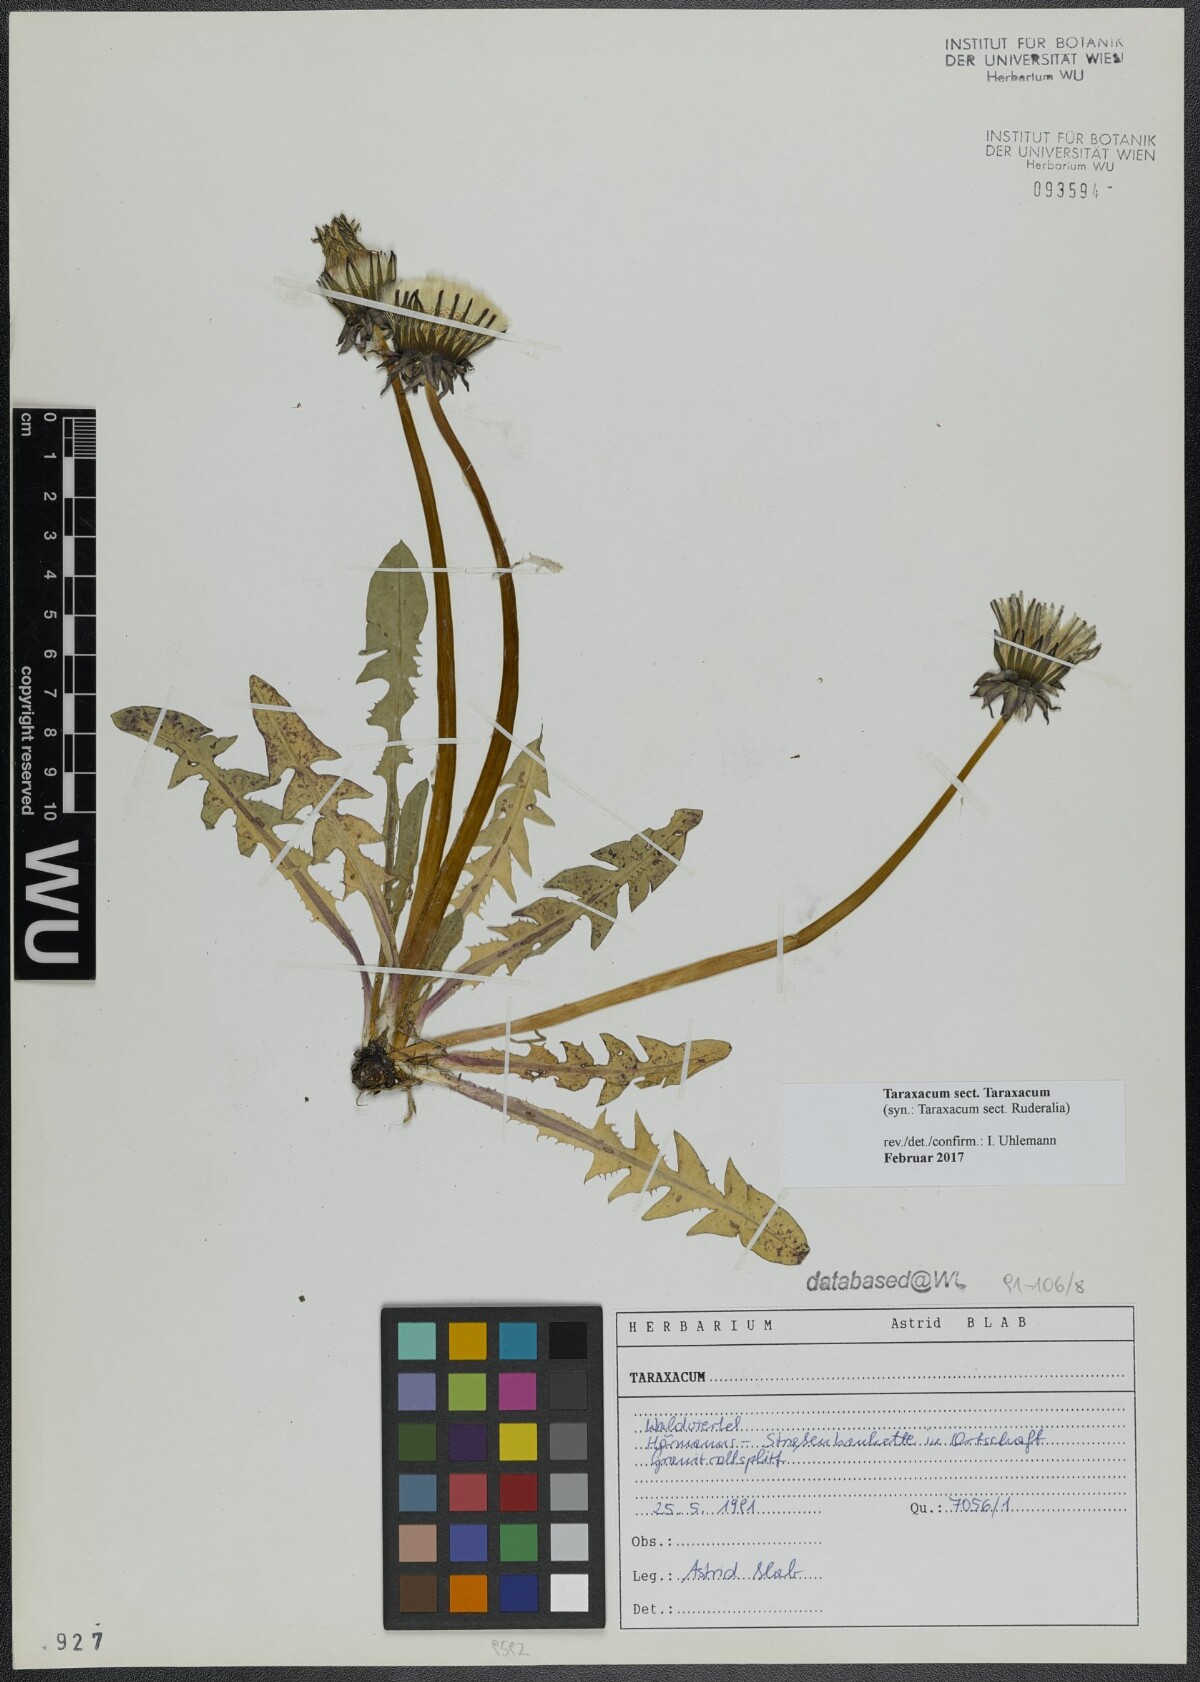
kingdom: Plantae
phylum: Tracheophyta
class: Magnoliopsida
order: Asterales
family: Asteraceae
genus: Taraxacum
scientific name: Taraxacum
